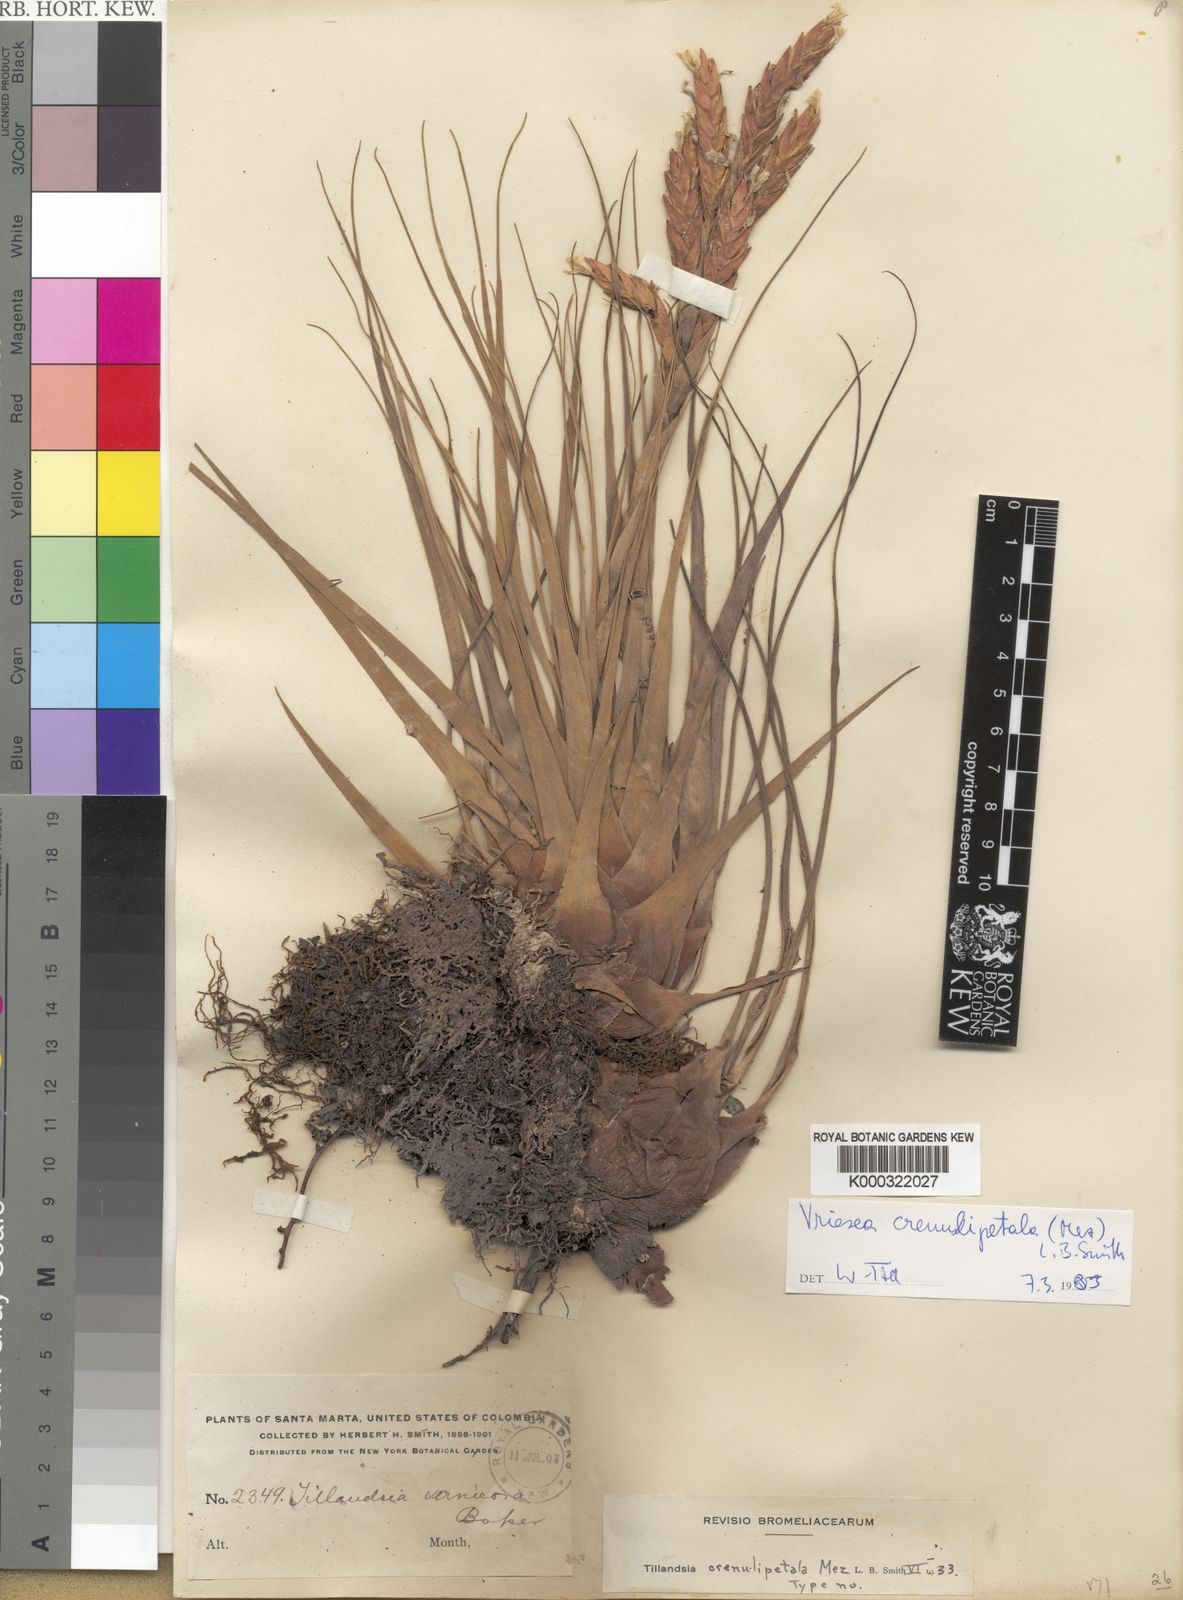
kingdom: Plantae
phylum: Tracheophyta
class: Liliopsida
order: Poales
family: Bromeliaceae
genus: Tillandsia
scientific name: Tillandsia crenulipetala
